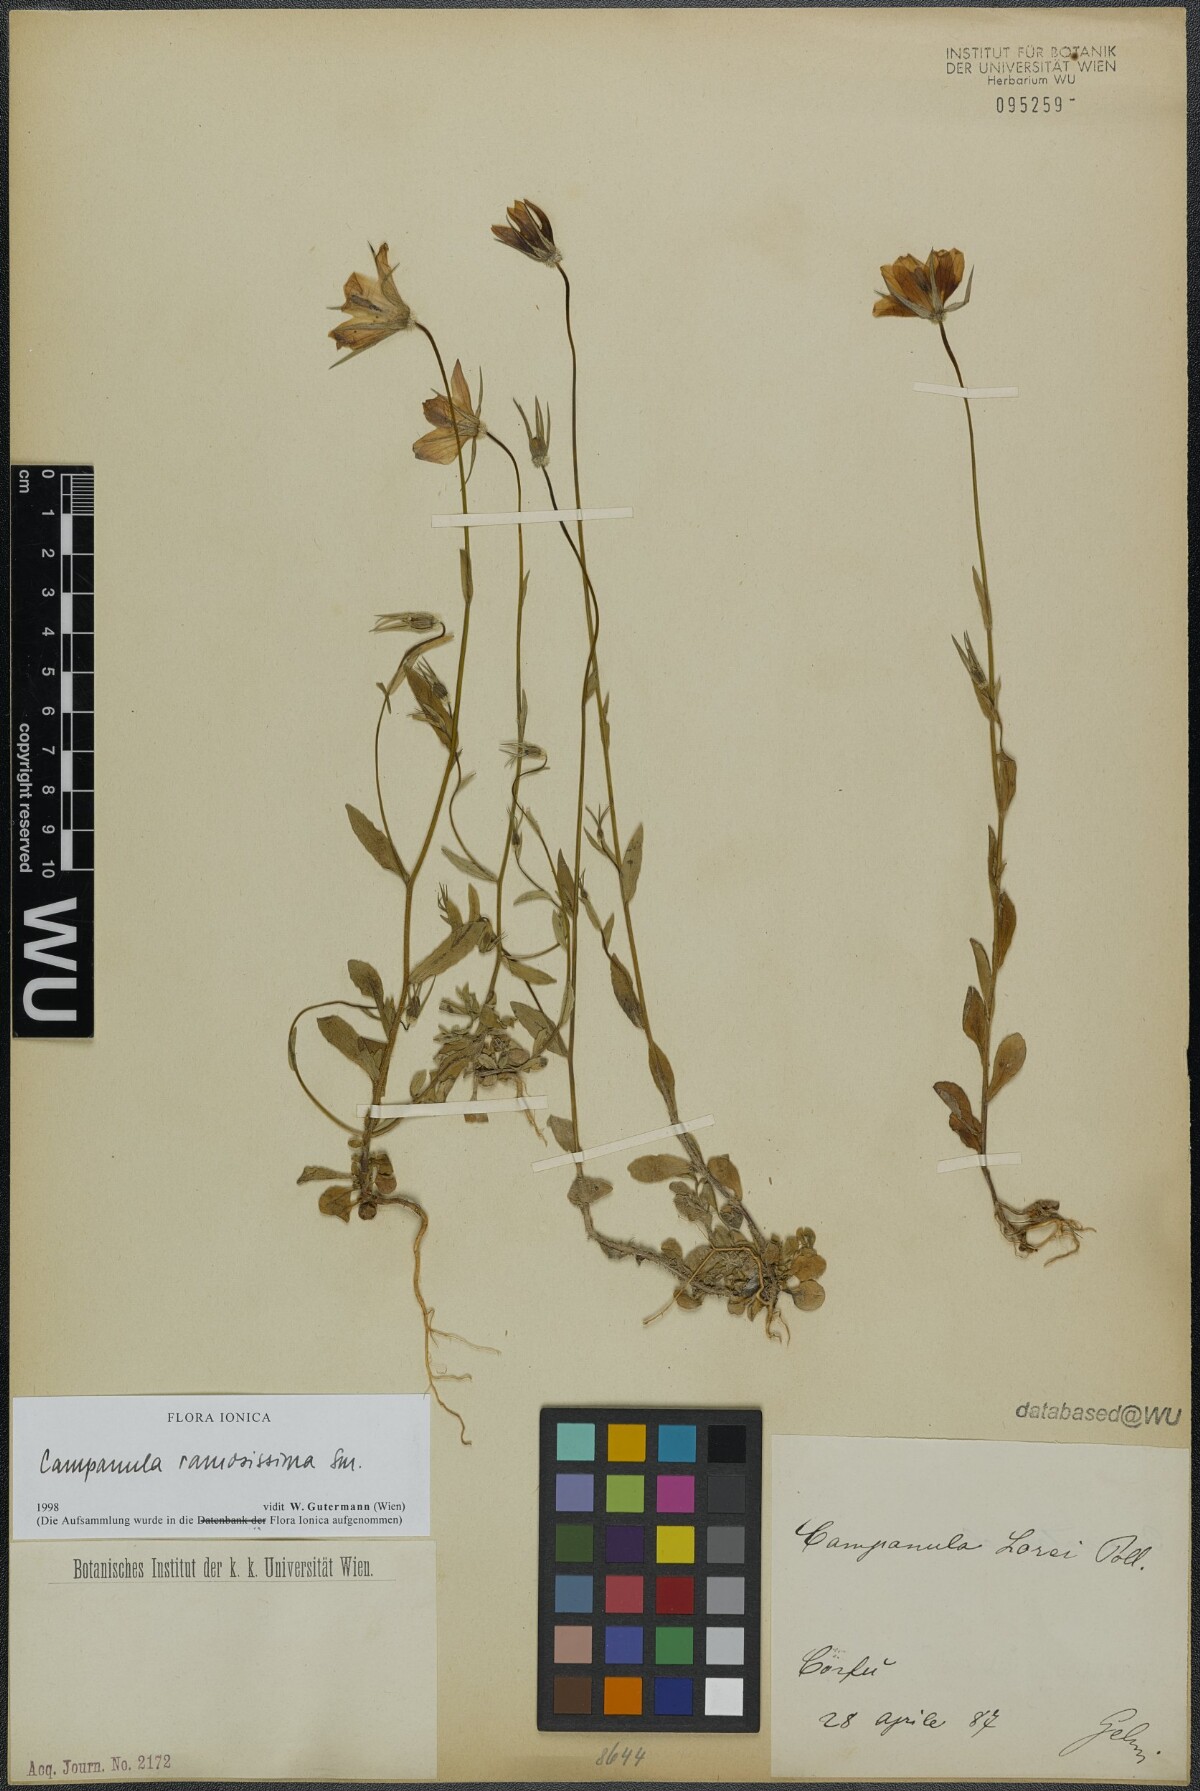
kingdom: Plantae
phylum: Tracheophyta
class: Magnoliopsida
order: Asterales
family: Campanulaceae
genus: Campanula
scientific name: Campanula ramosissima
